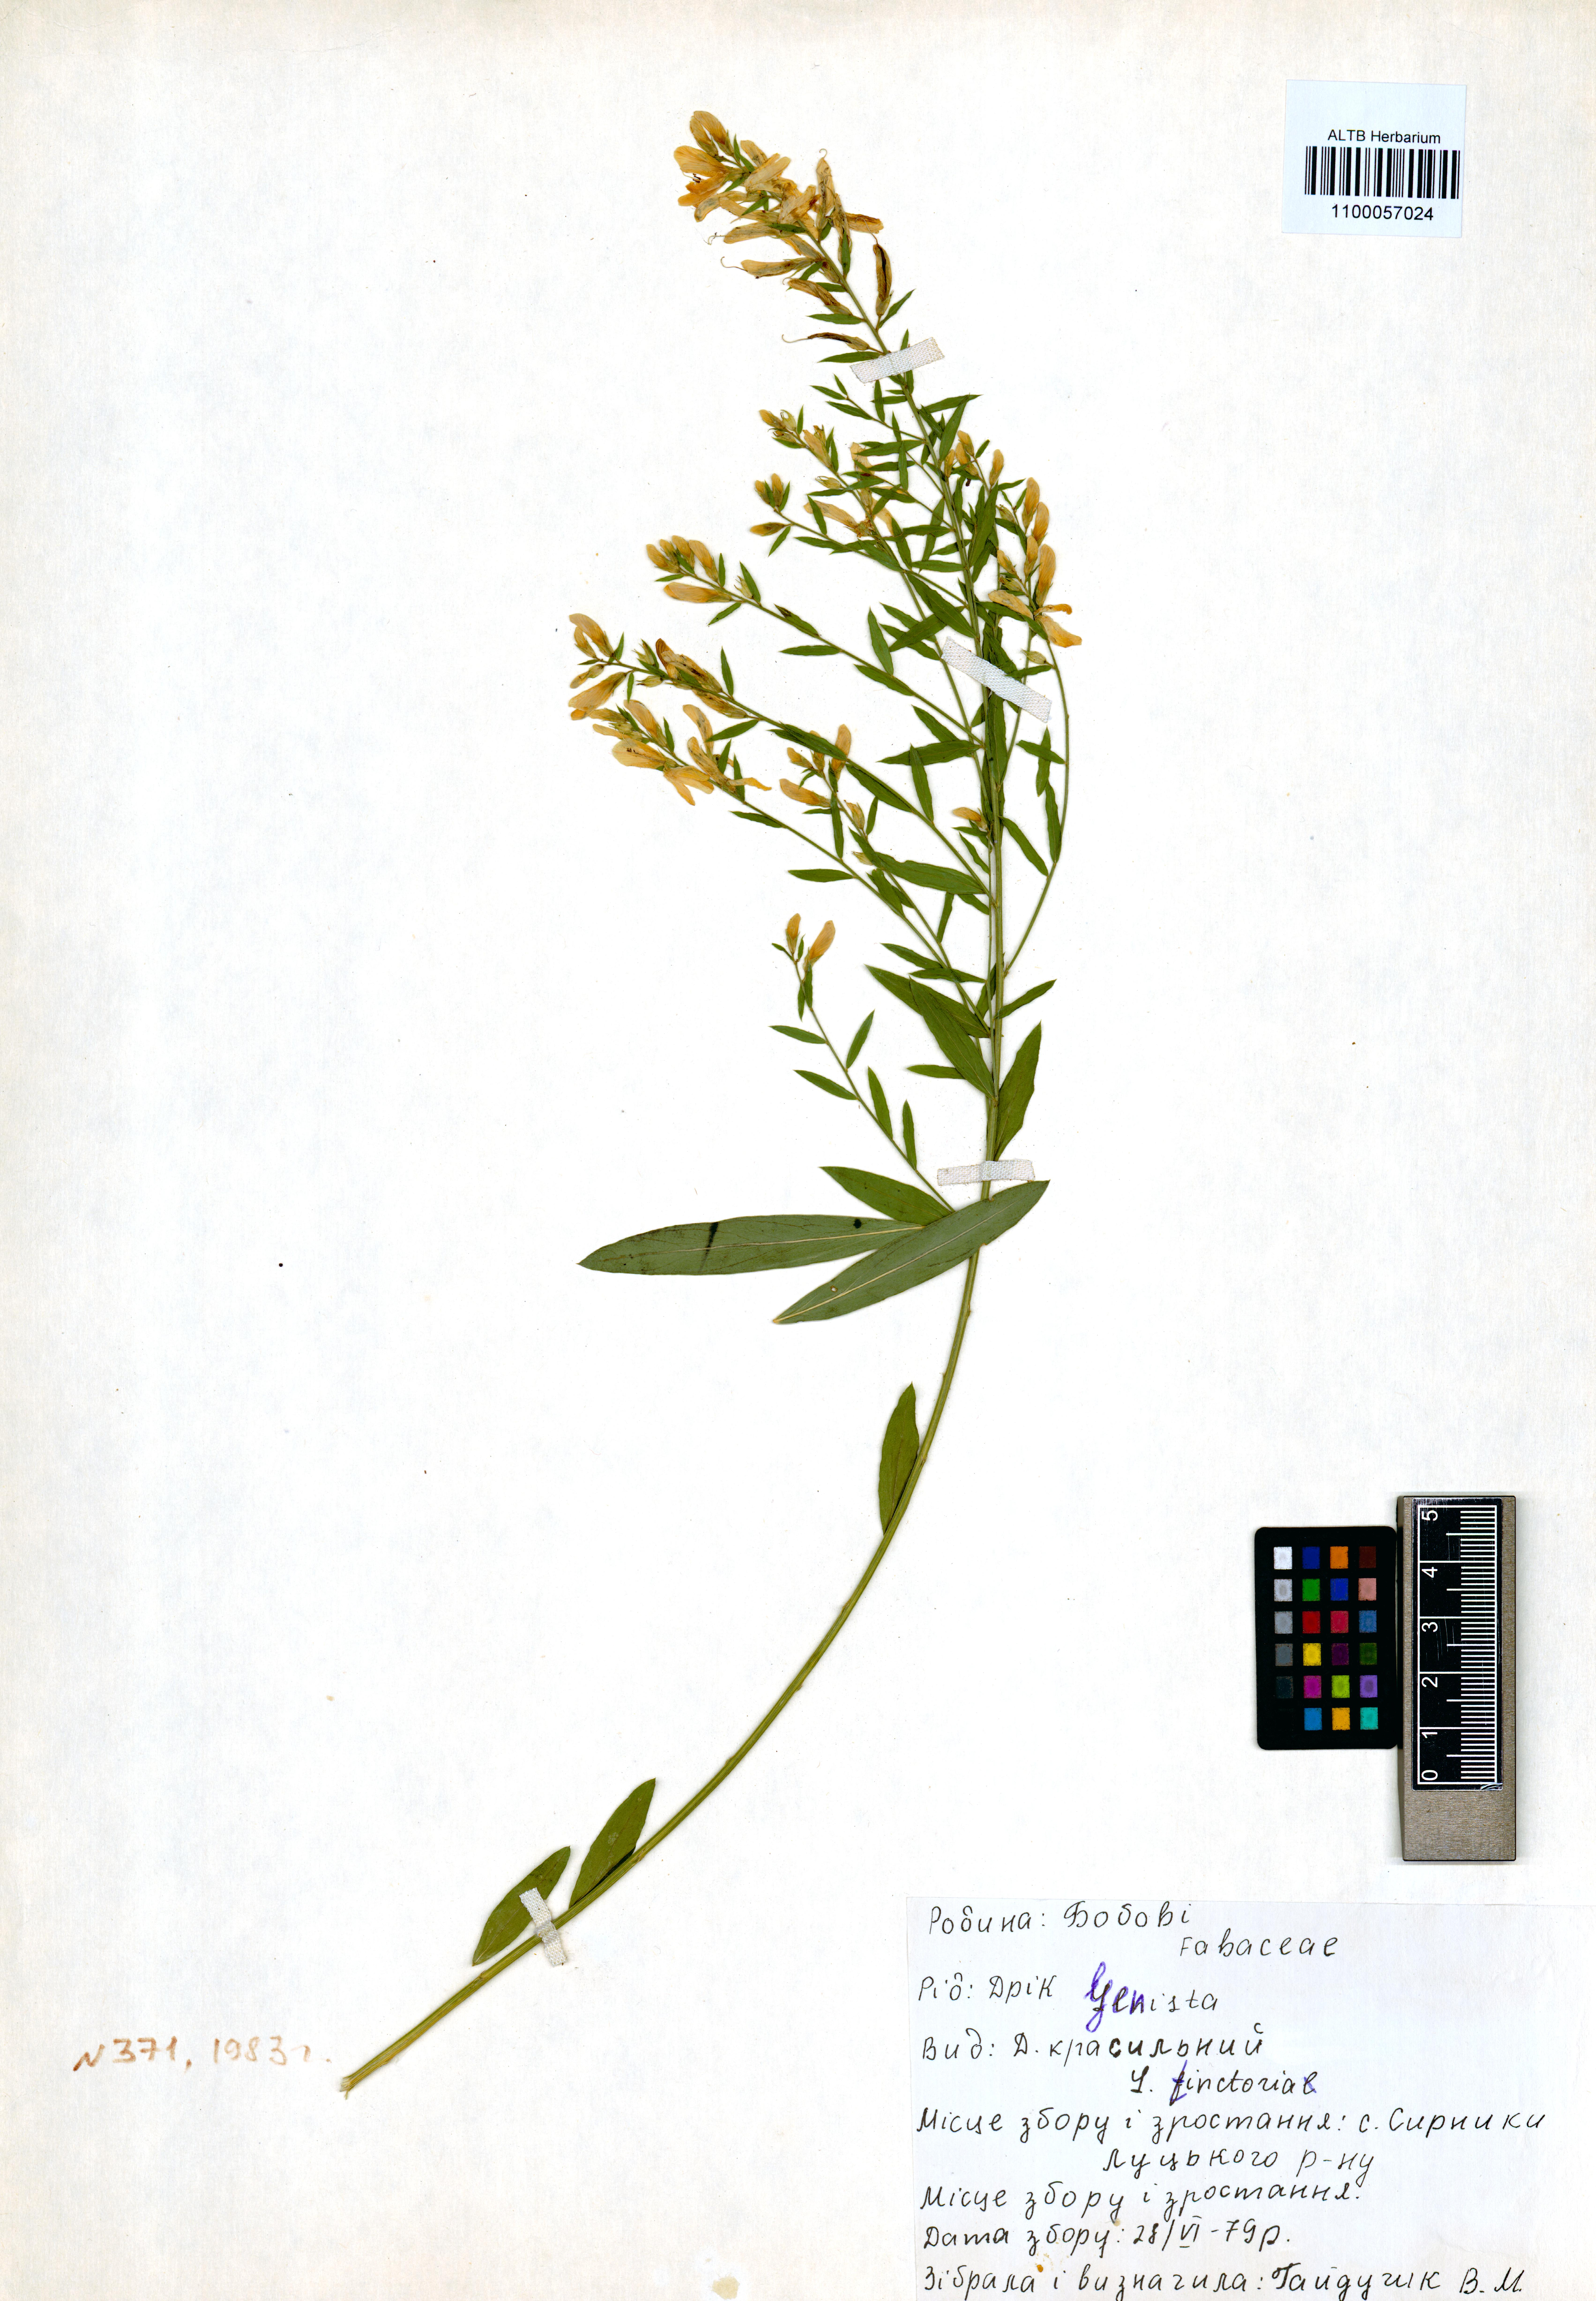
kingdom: Plantae
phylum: Tracheophyta
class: Magnoliopsida
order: Fabales
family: Fabaceae
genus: Genista
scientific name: Genista tinctoria
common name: Dyer's greenweed
